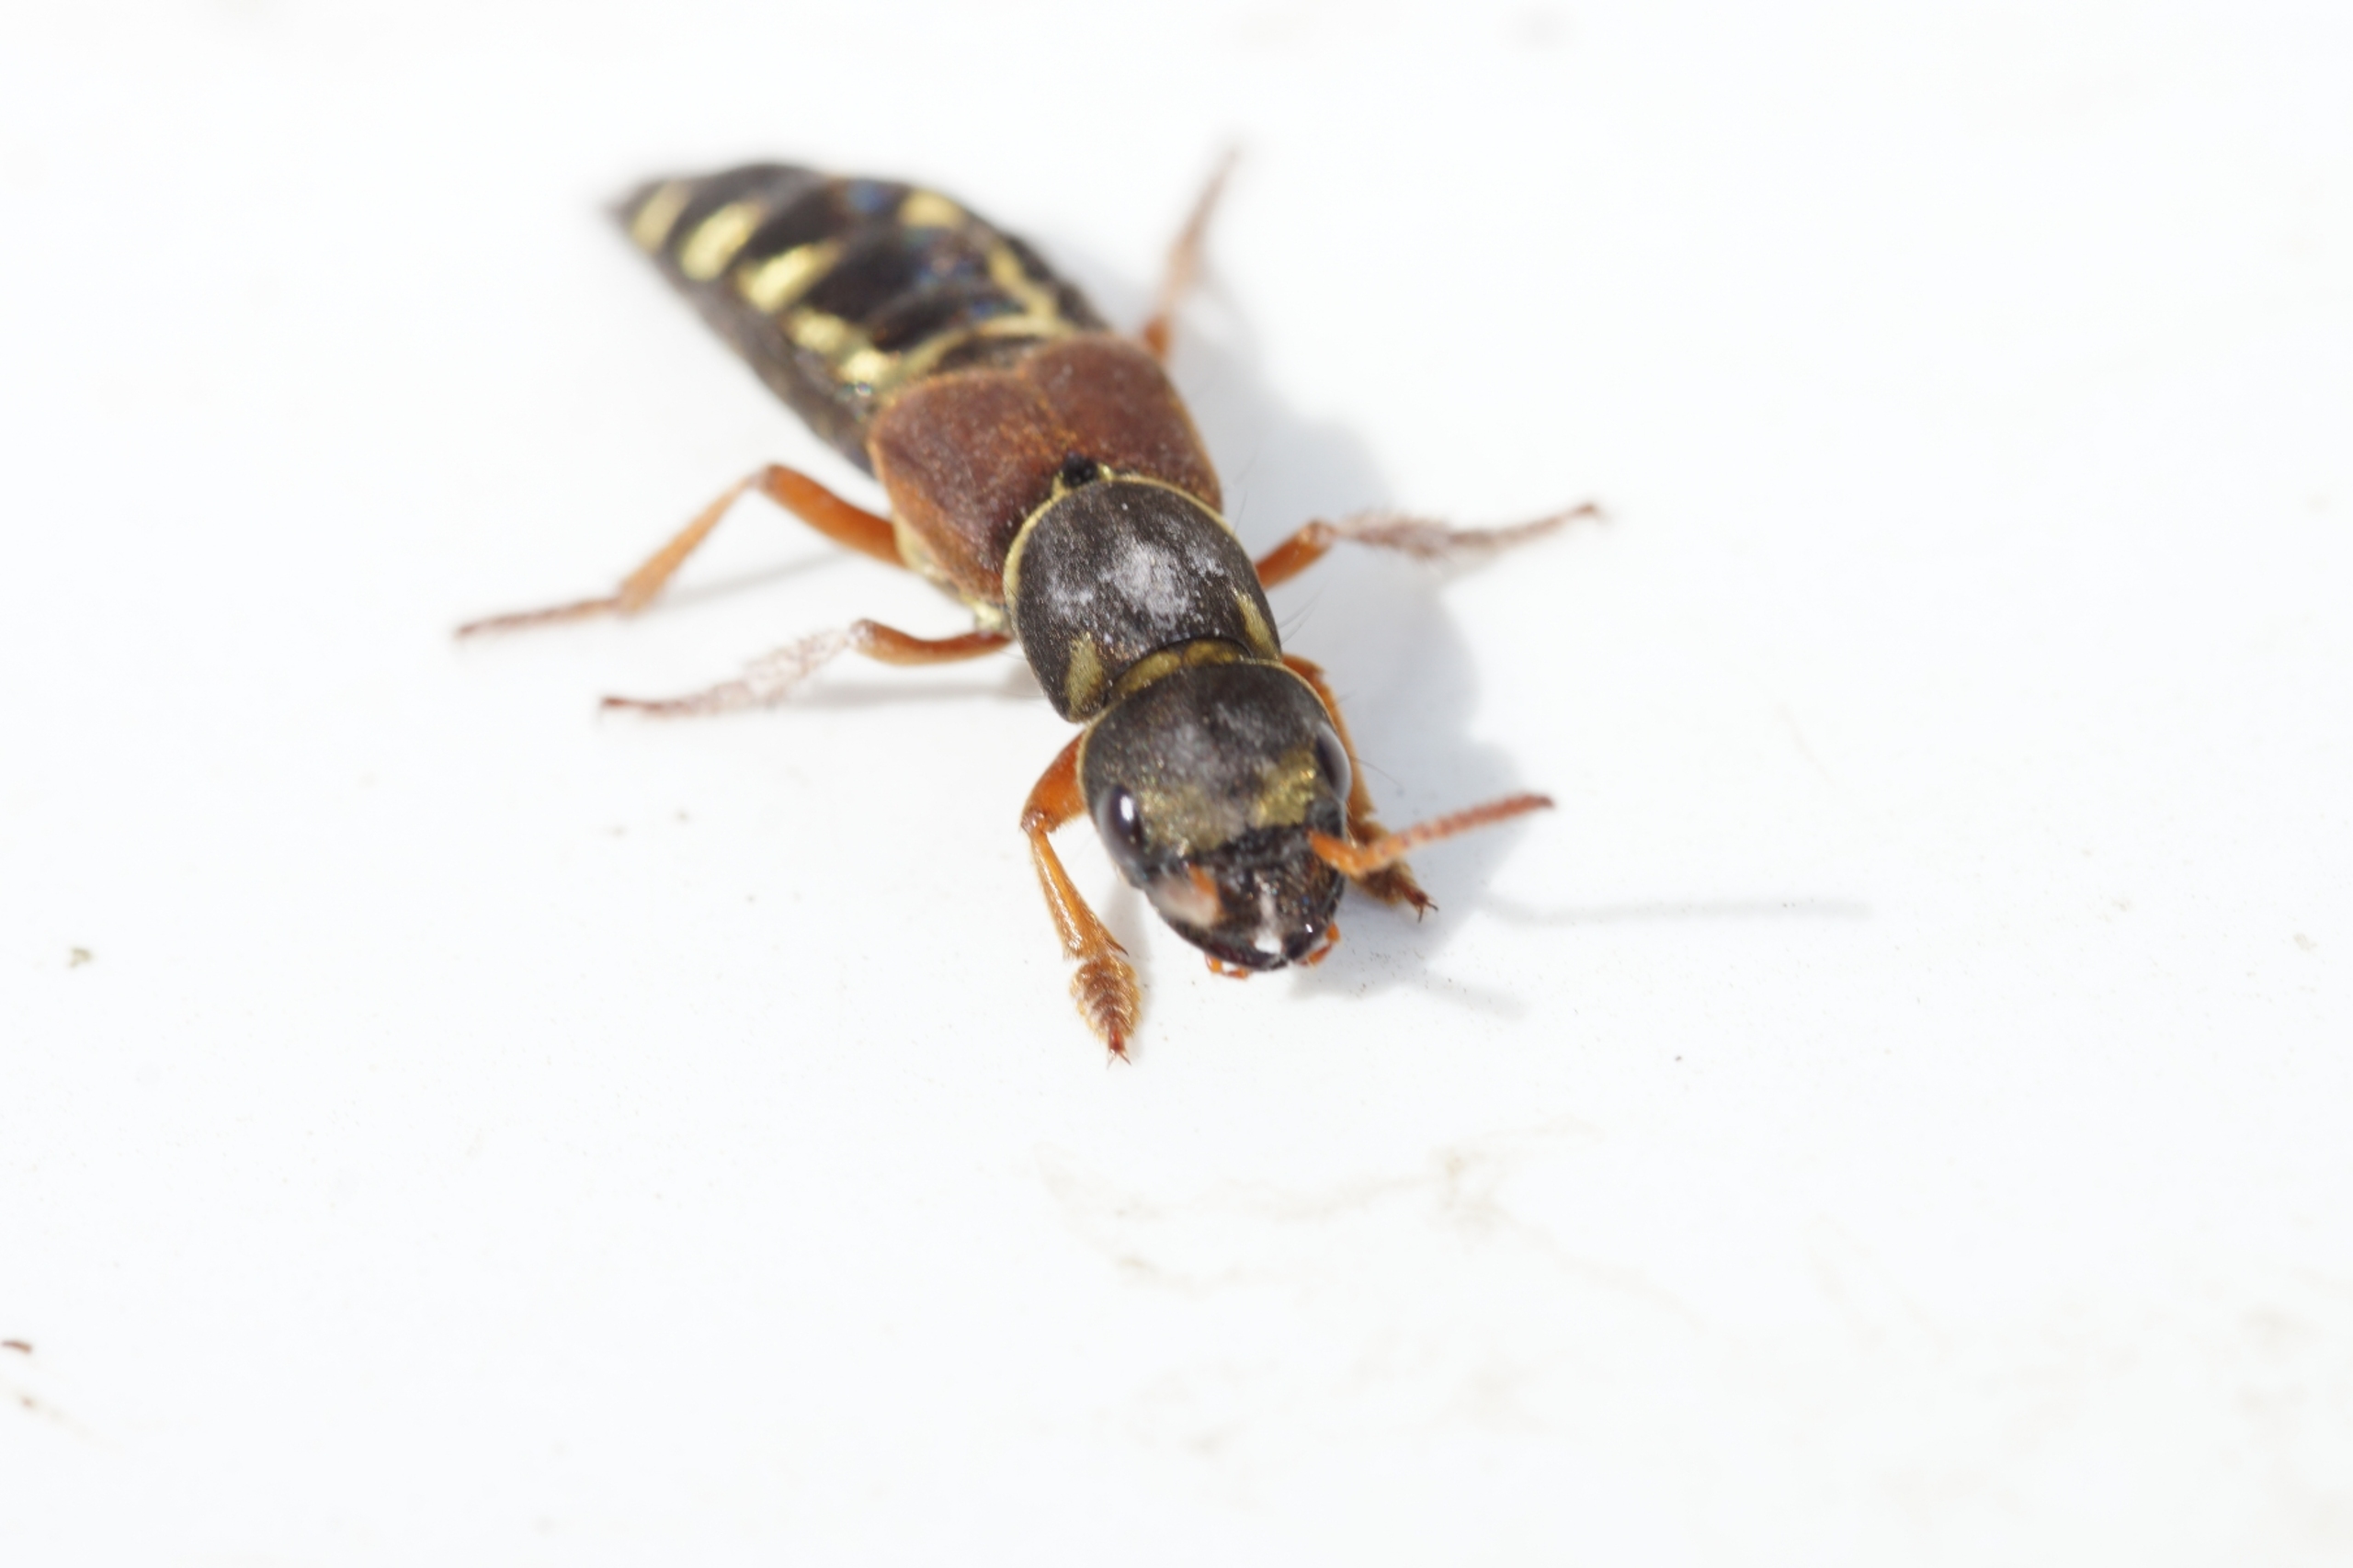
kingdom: Animalia
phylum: Arthropoda
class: Insecta
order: Coleoptera
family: Staphylinidae
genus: Staphylinus
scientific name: Staphylinus caesareus
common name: Kejserrovbille
